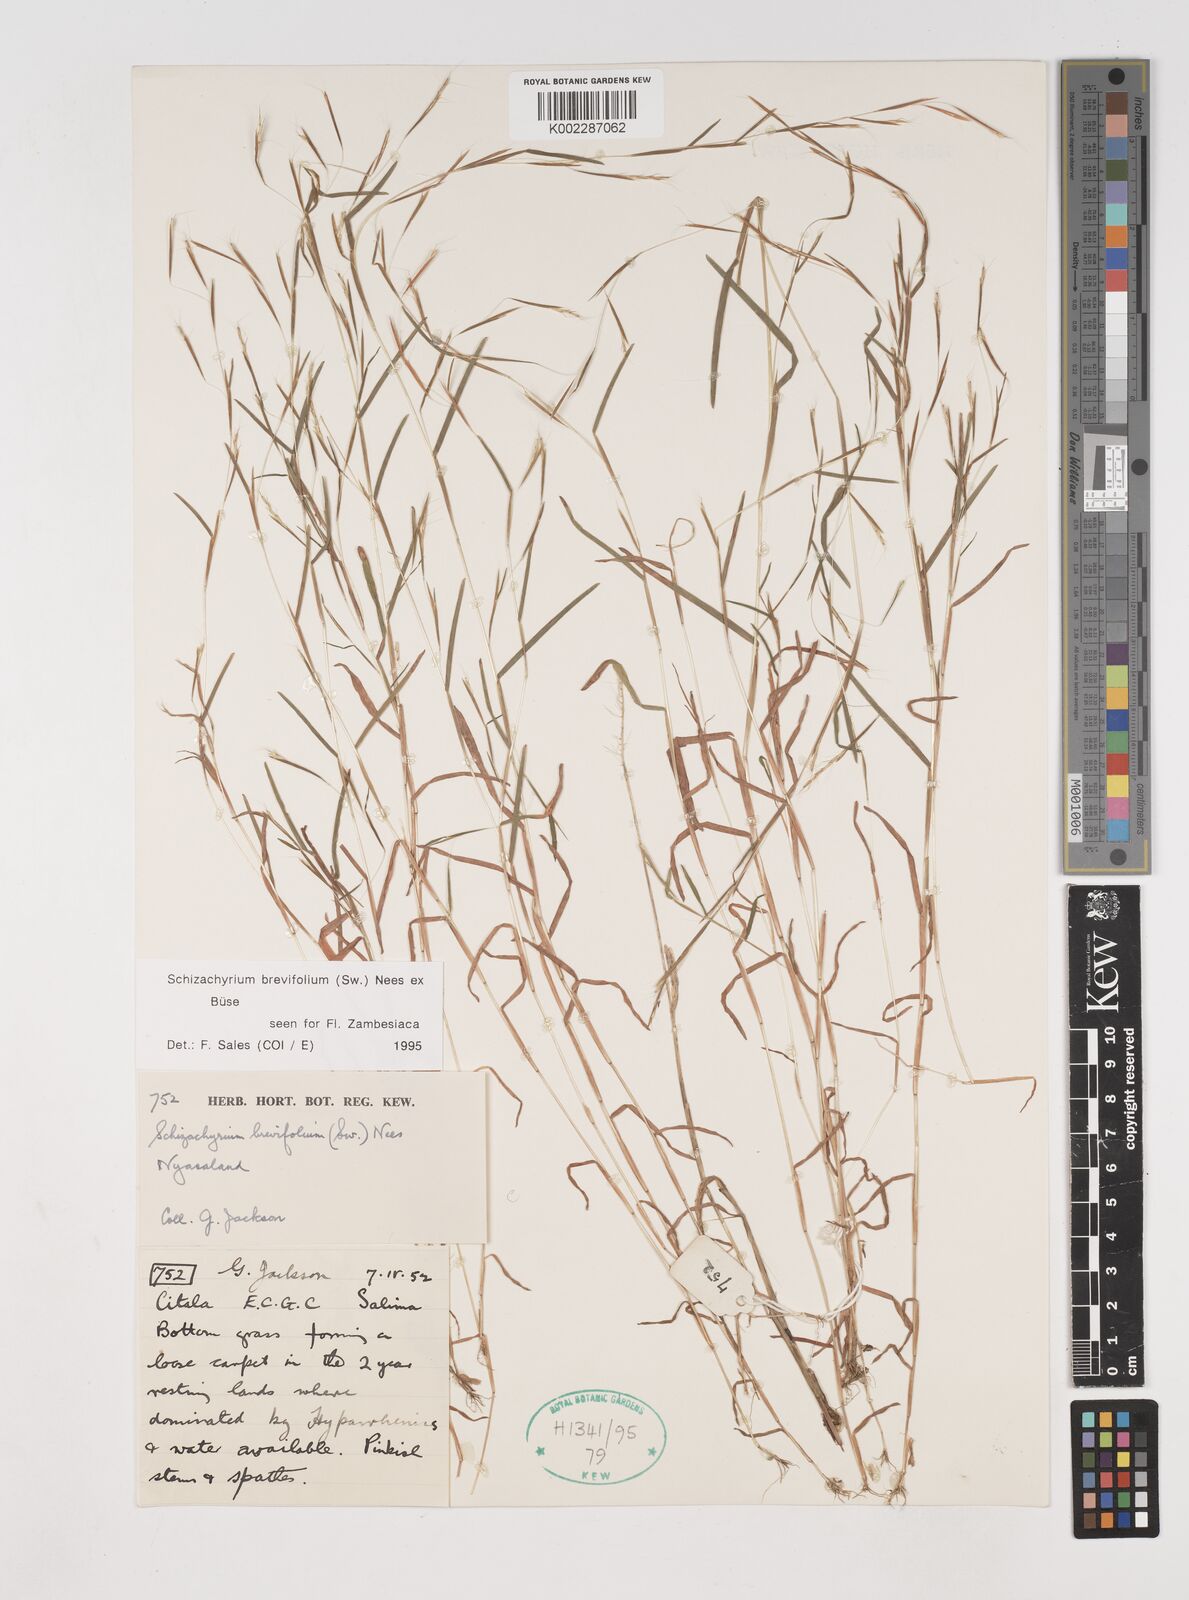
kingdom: Plantae
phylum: Tracheophyta
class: Liliopsida
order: Poales
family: Poaceae
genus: Schizachyrium
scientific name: Schizachyrium brevifolium
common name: Serillo dulce
